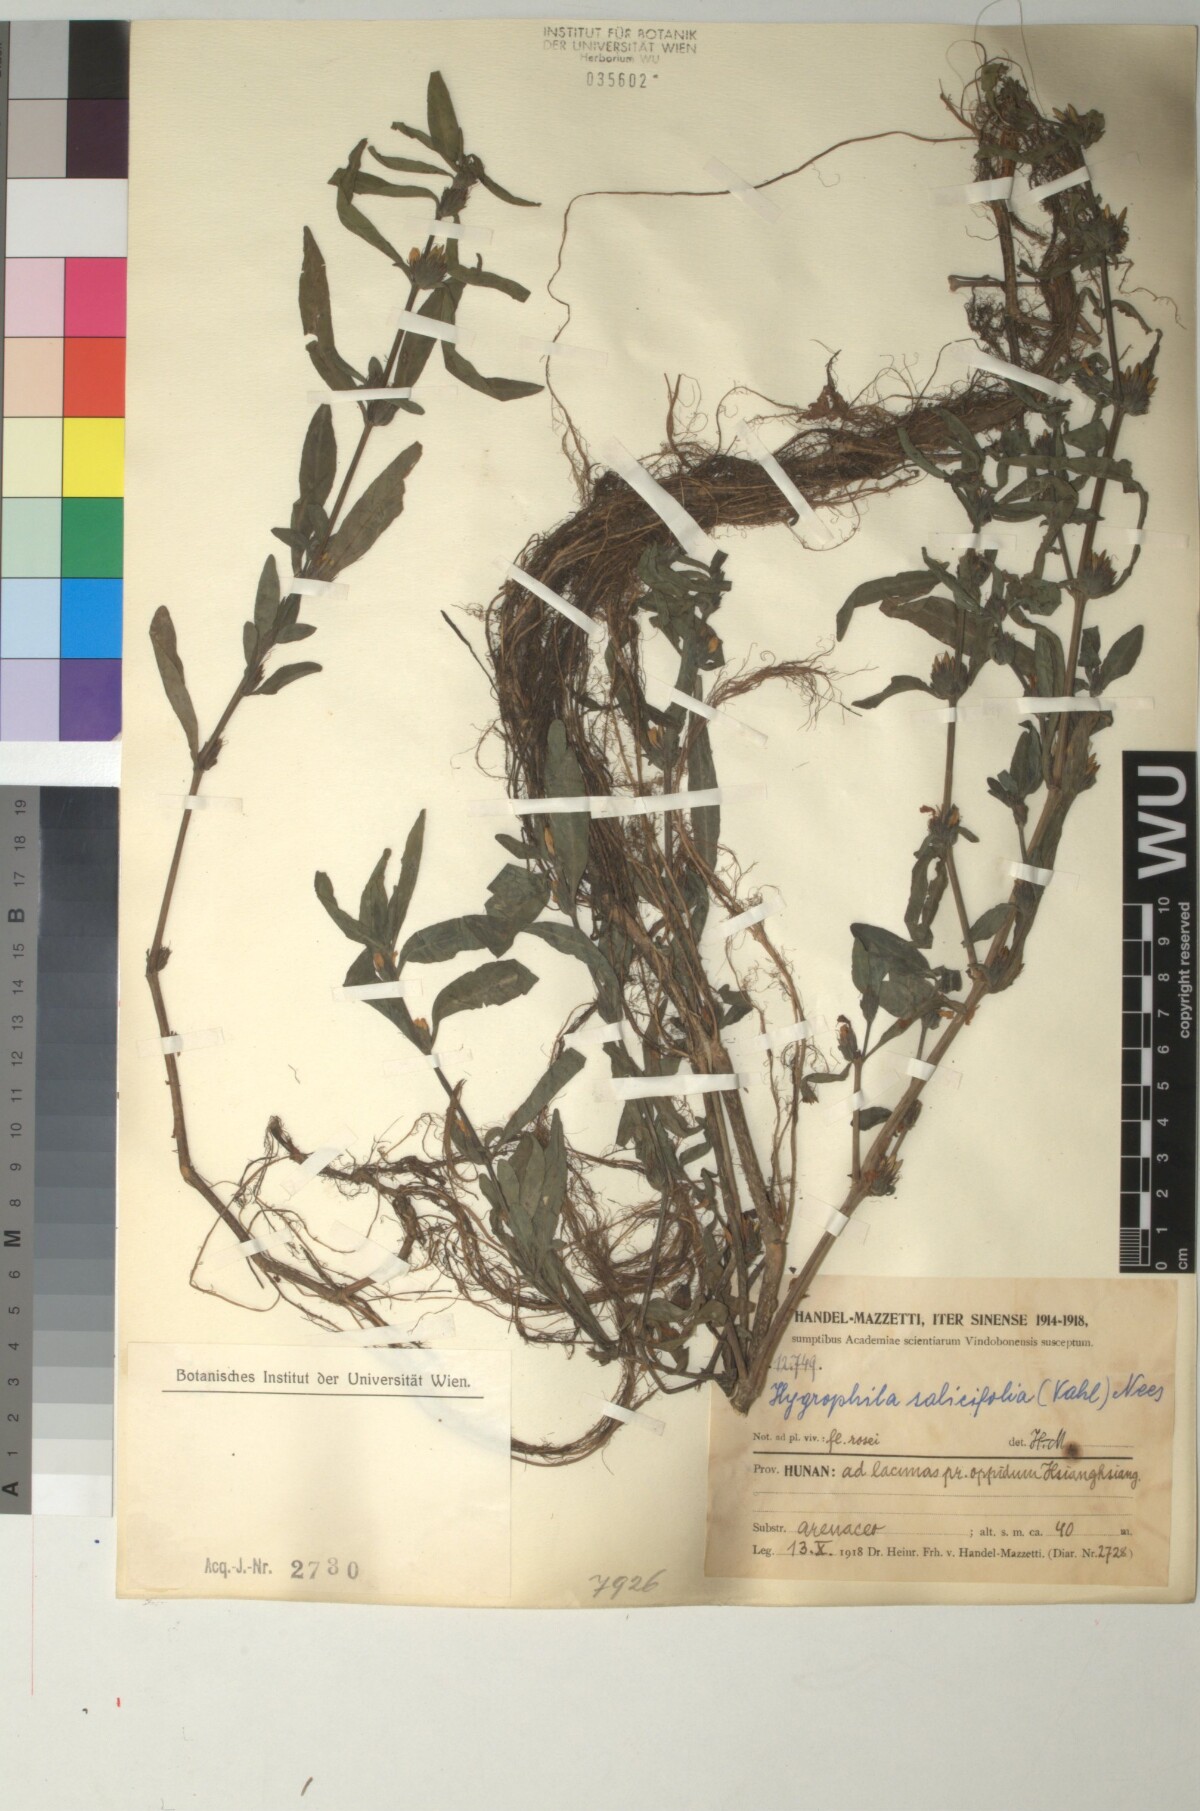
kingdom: Plantae
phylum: Tracheophyta
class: Magnoliopsida
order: Lamiales
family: Acanthaceae
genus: Hygrophila
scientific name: Hygrophila ringens
